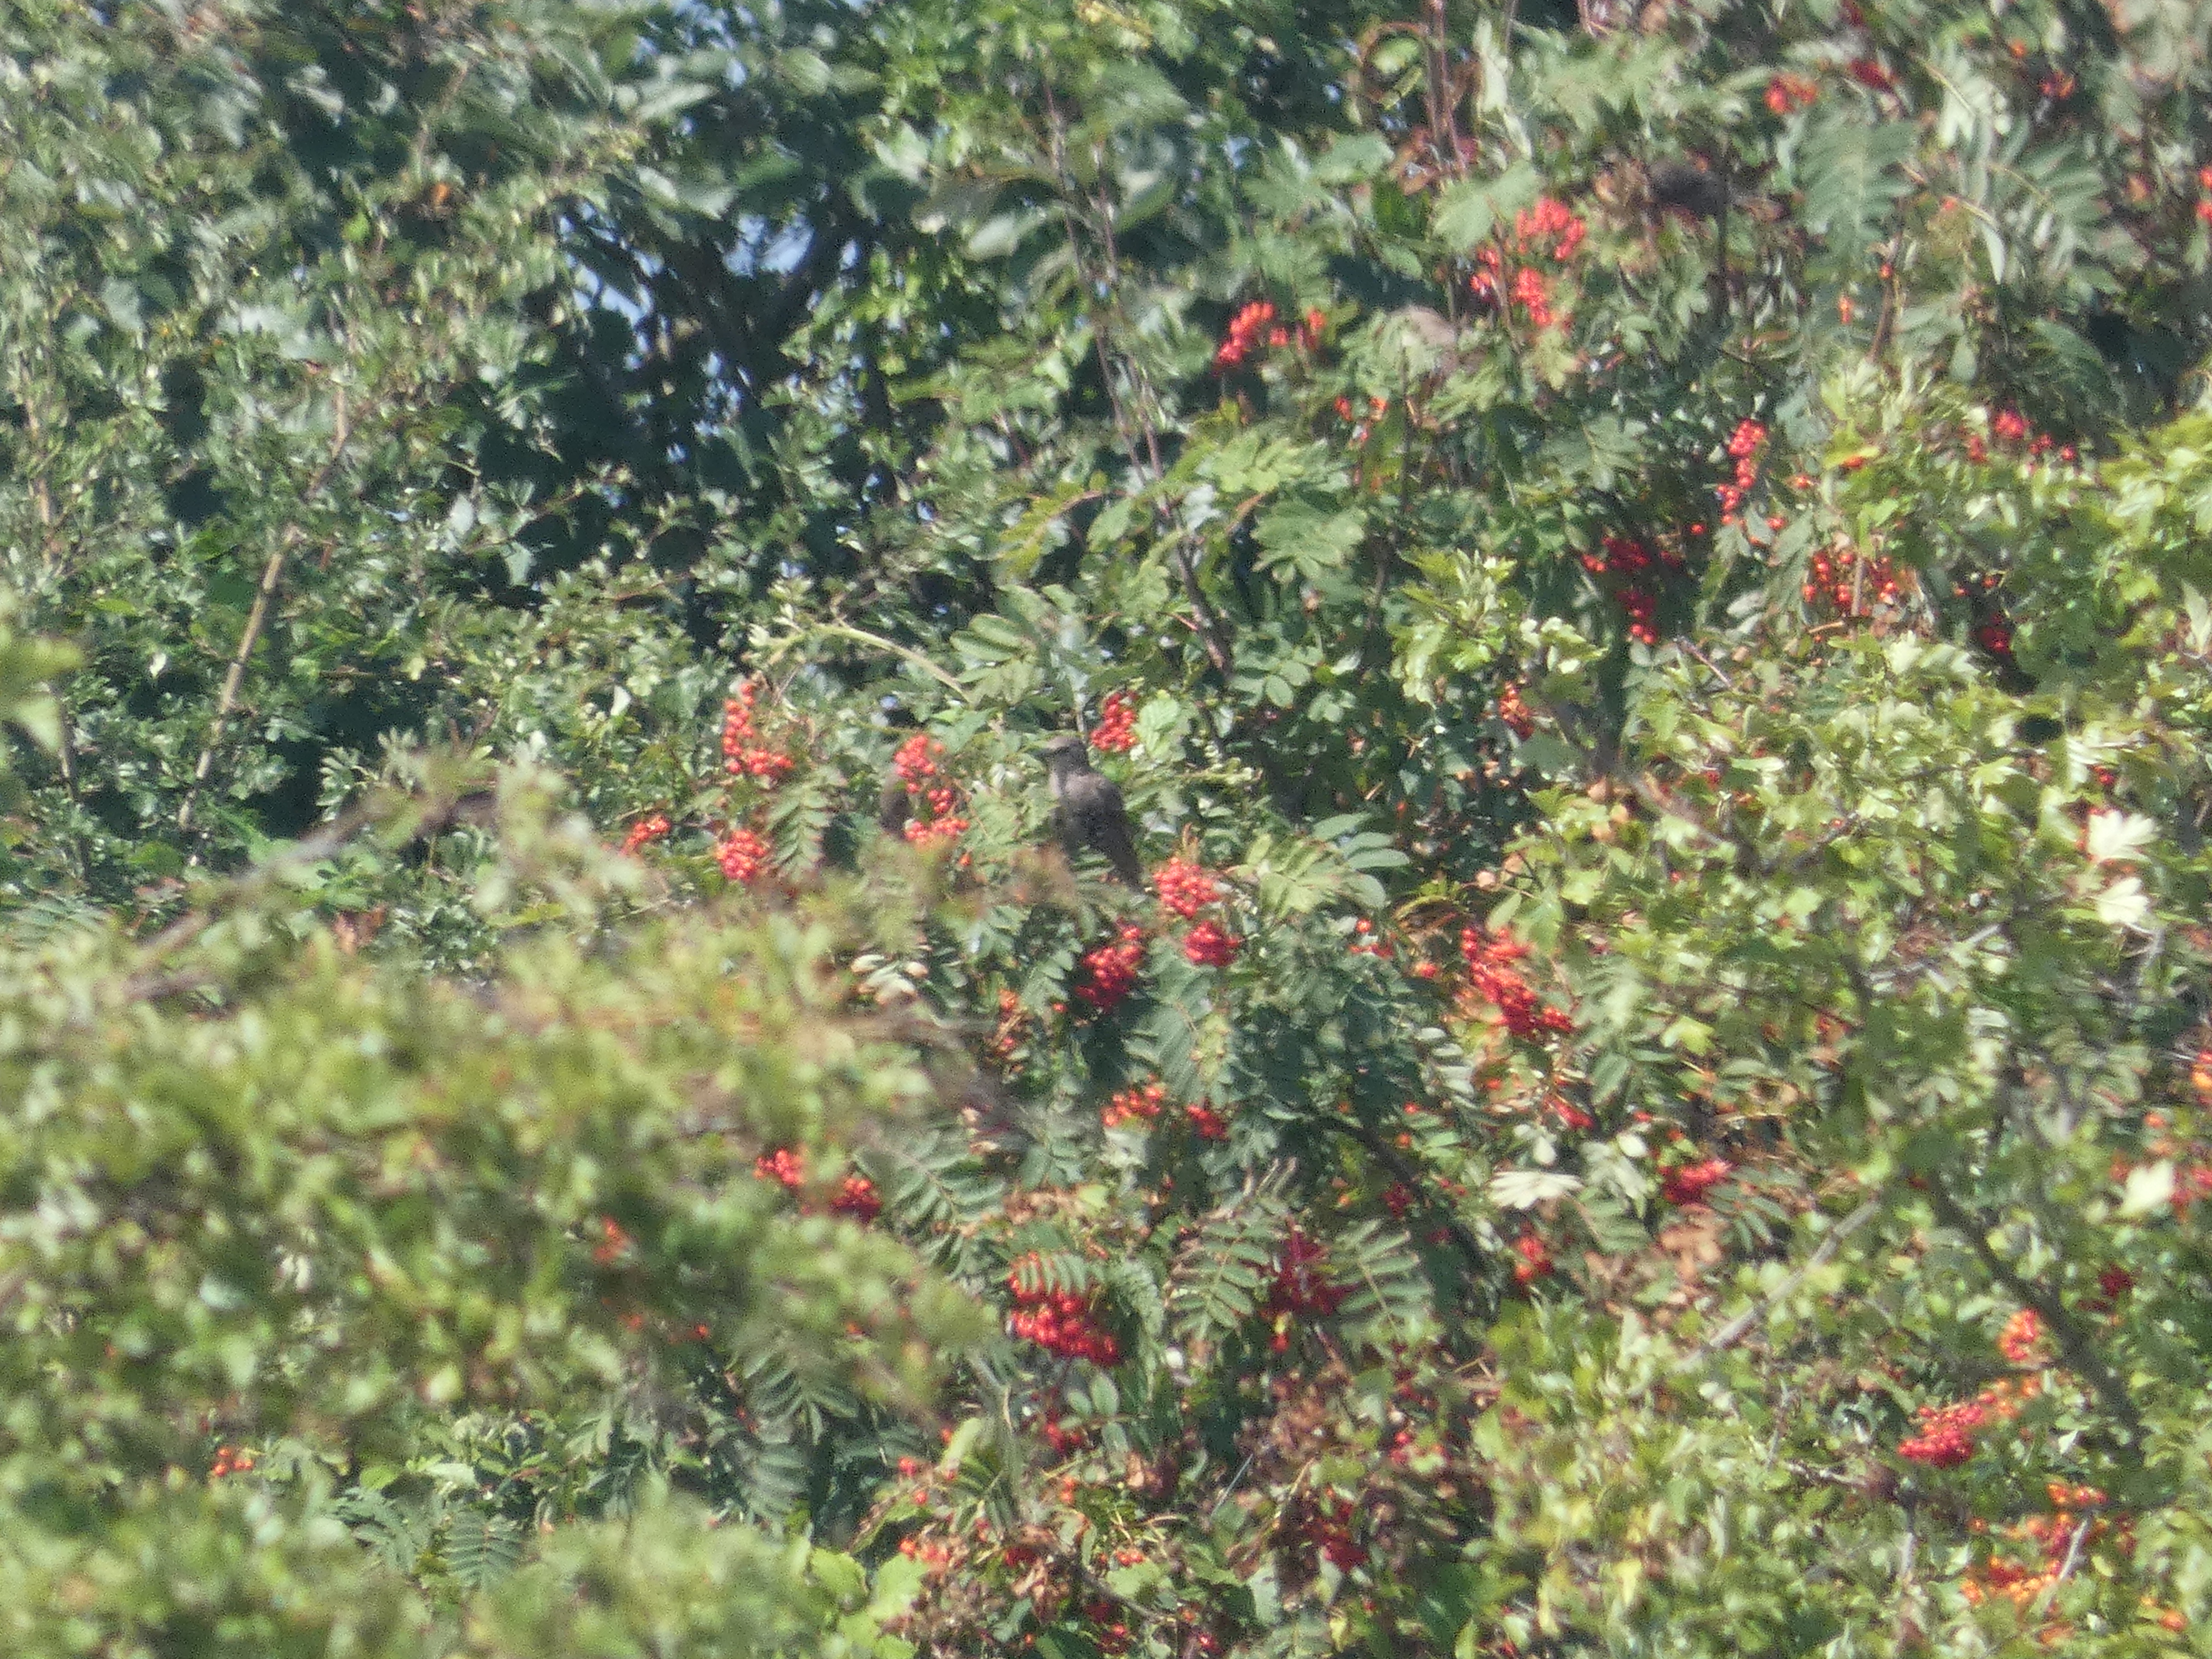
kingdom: Plantae
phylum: Tracheophyta
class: Magnoliopsida
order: Rosales
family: Rosaceae
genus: Sorbus
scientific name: Sorbus aucuparia
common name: Almindelig røn
